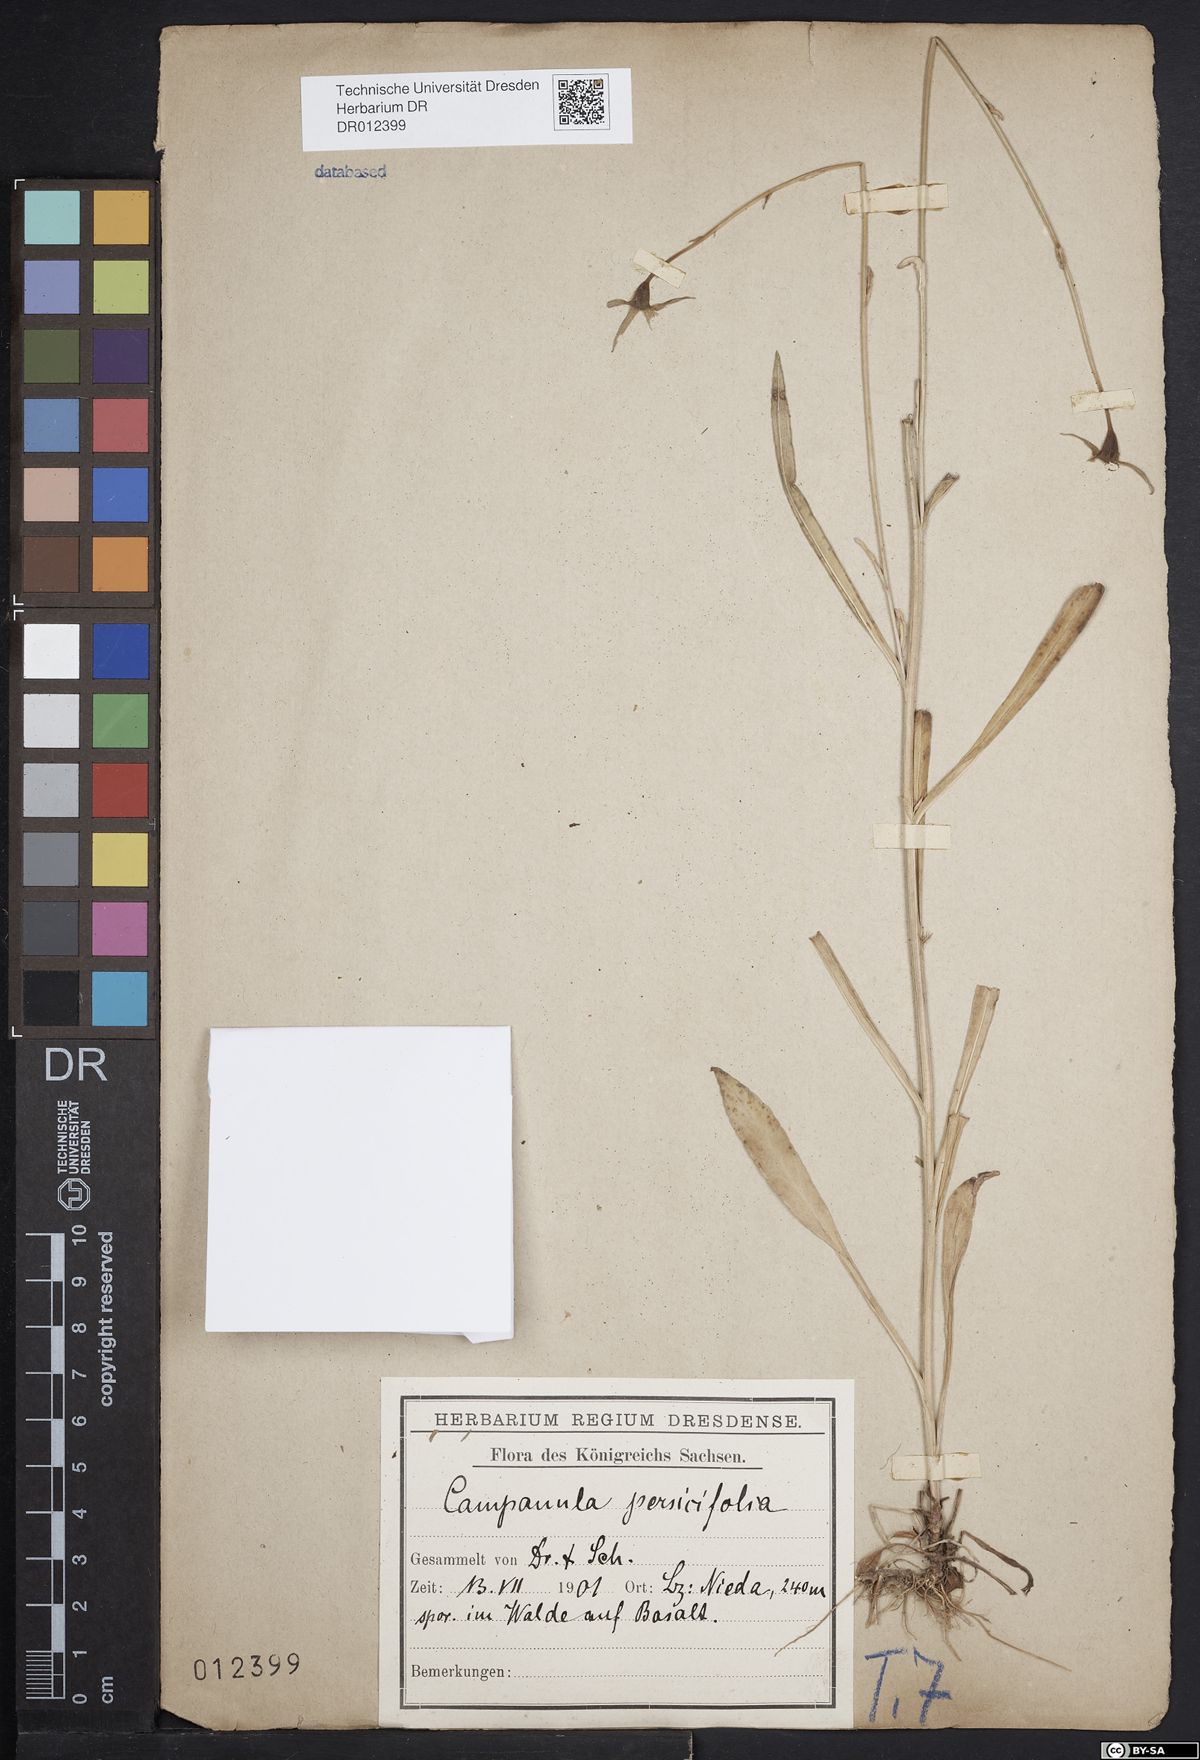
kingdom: Plantae
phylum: Tracheophyta
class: Magnoliopsida
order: Asterales
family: Campanulaceae
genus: Campanula
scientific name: Campanula persicifolia
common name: Peach-leaved bellflower
